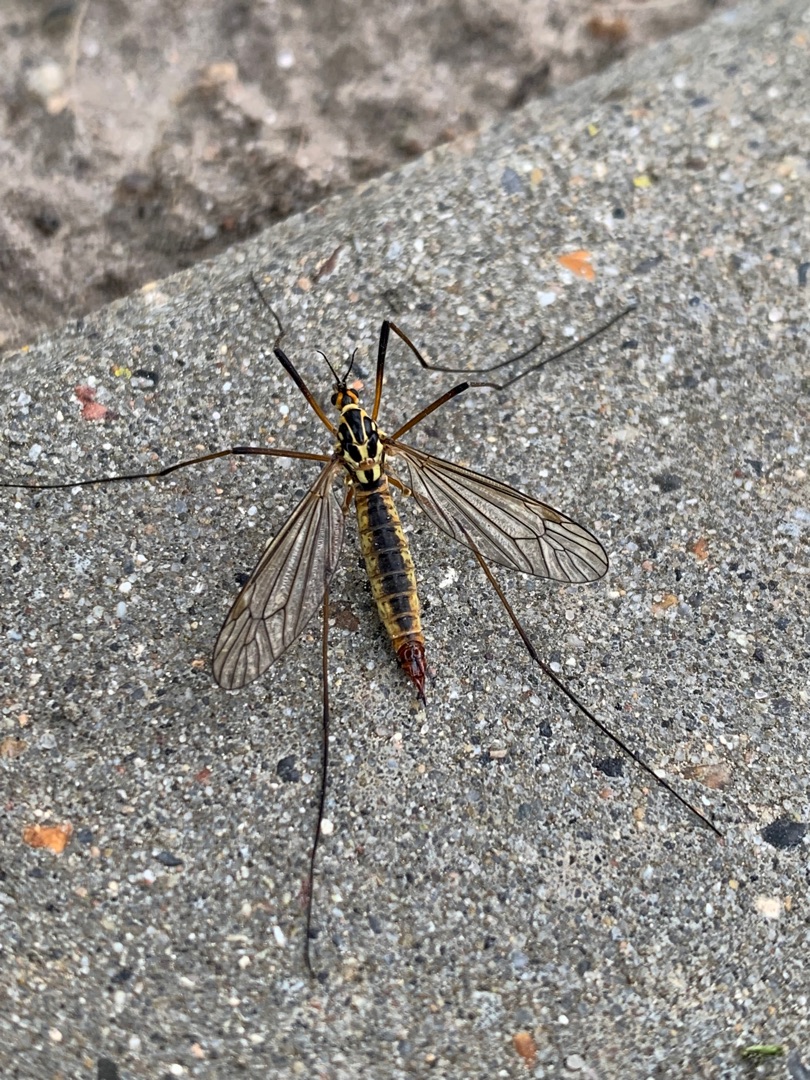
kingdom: Animalia
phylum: Arthropoda
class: Insecta
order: Diptera
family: Tipulidae
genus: Nephrotoma
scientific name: Nephrotoma appendiculata
